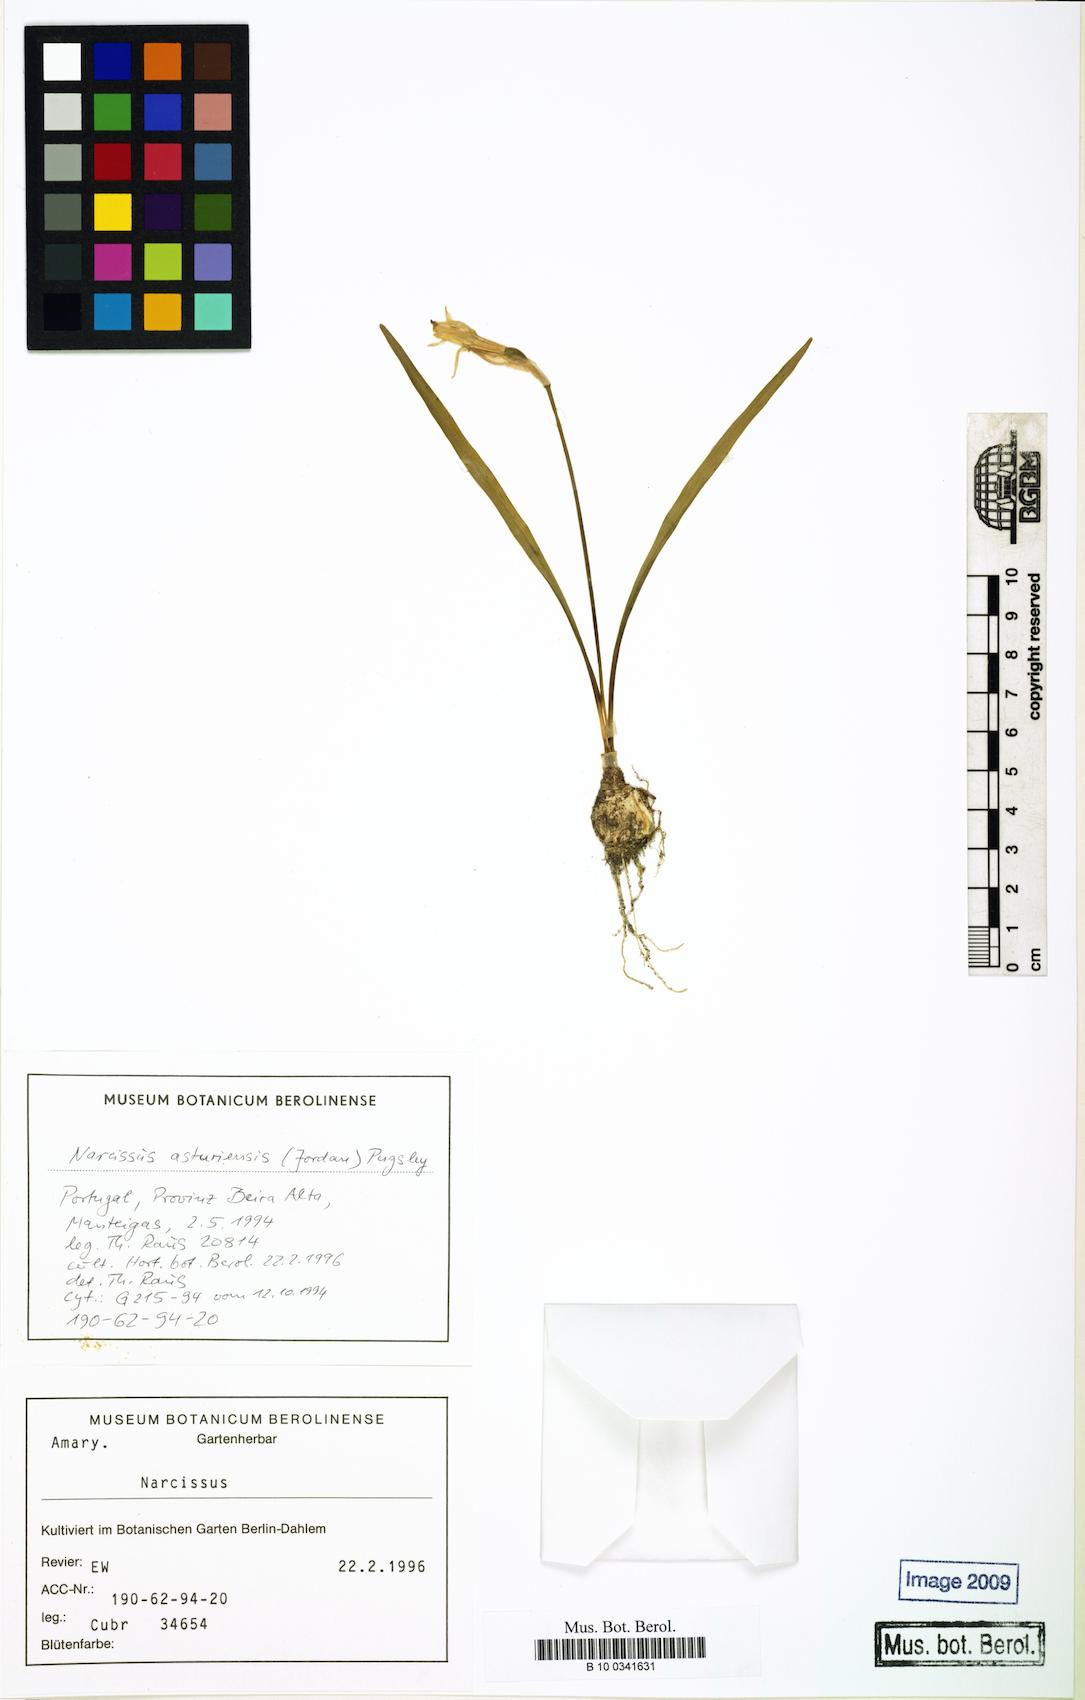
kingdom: Plantae
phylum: Tracheophyta
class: Liliopsida
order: Asparagales
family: Amaryllidaceae
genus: Narcissus
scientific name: Narcissus cuneiflorus
